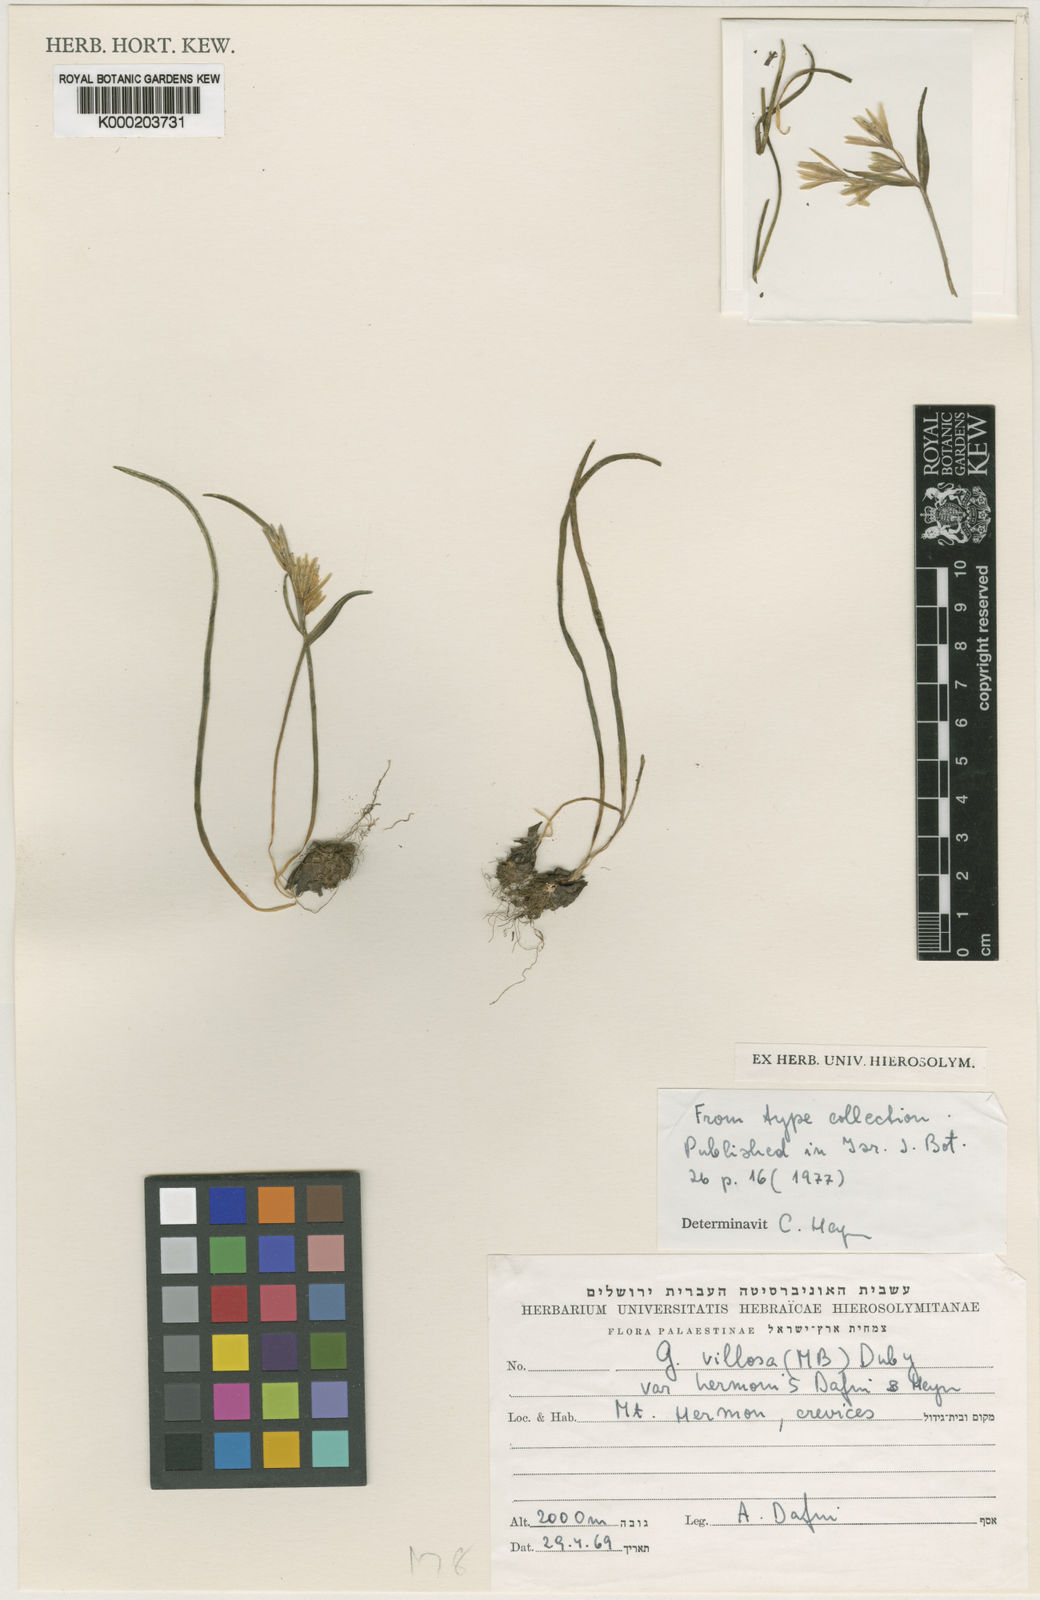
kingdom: Plantae
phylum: Tracheophyta
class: Liliopsida
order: Liliales
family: Liliaceae
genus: Gagea
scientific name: Gagea villosa
